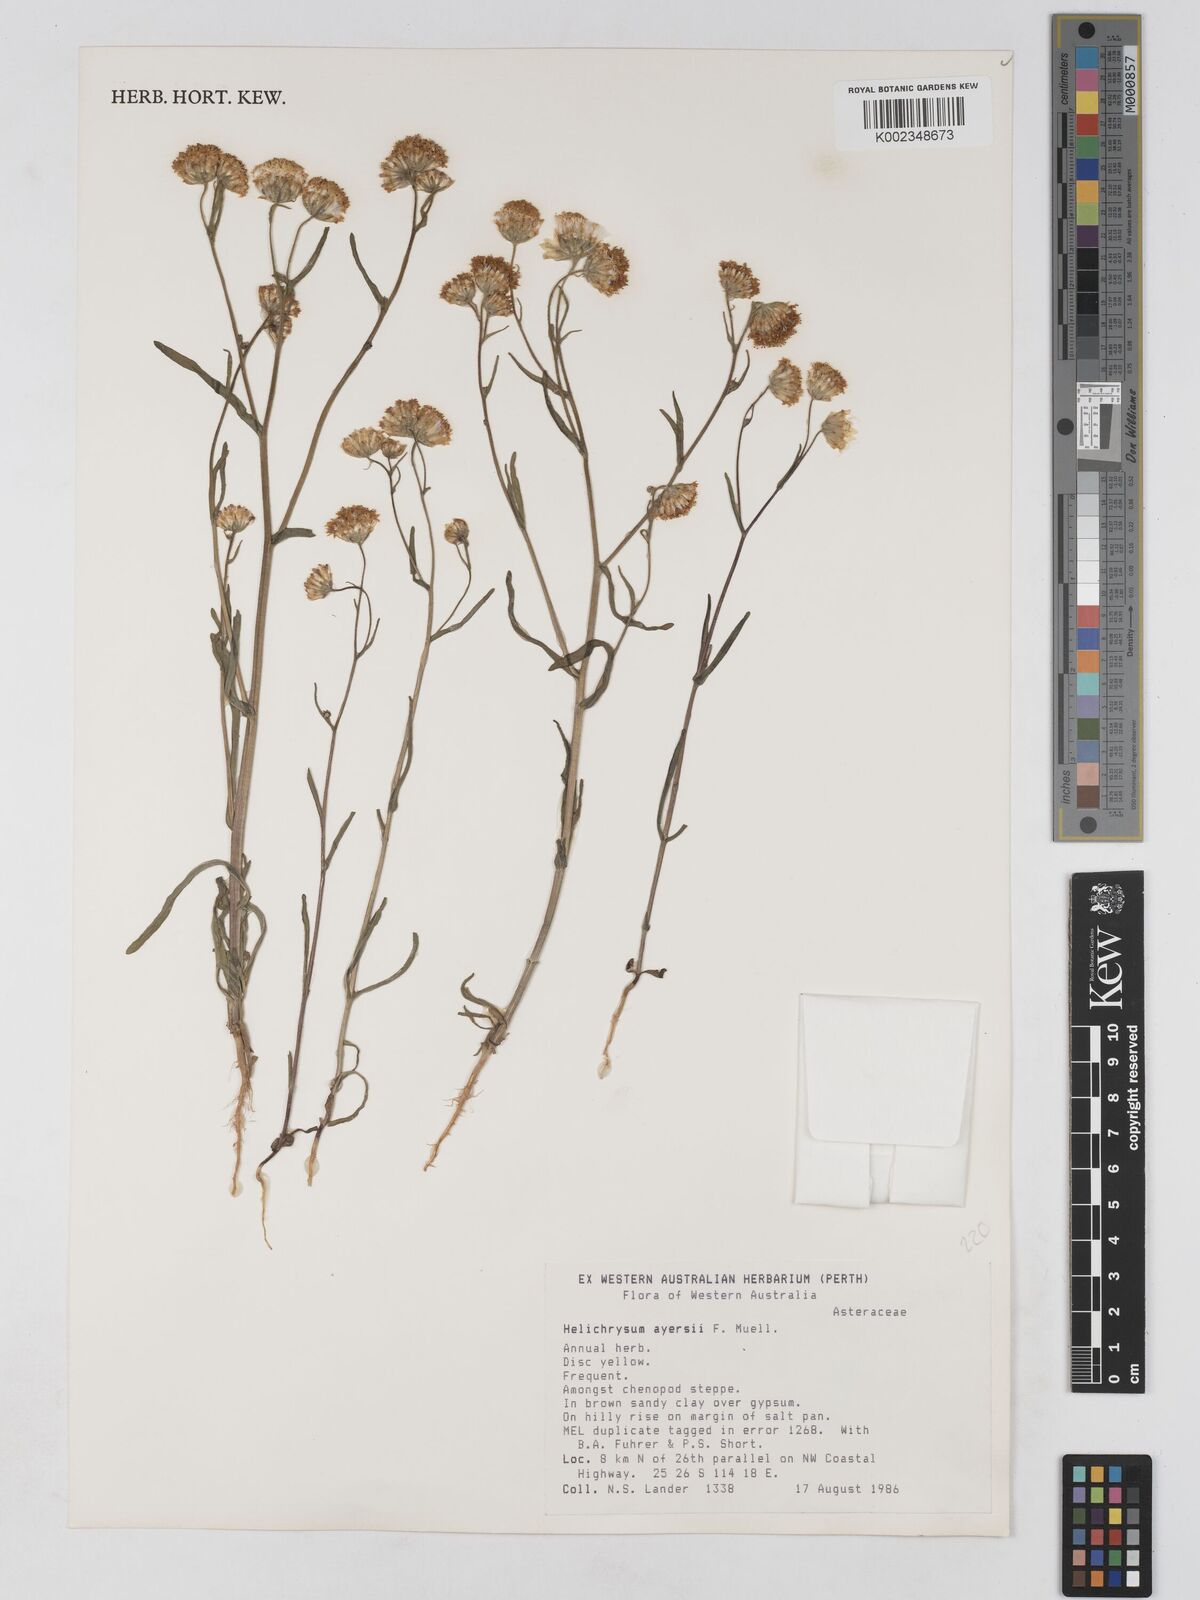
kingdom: Plantae
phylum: Tracheophyta
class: Magnoliopsida
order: Asterales
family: Asteraceae
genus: Schoenia
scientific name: Schoenia ayersii
